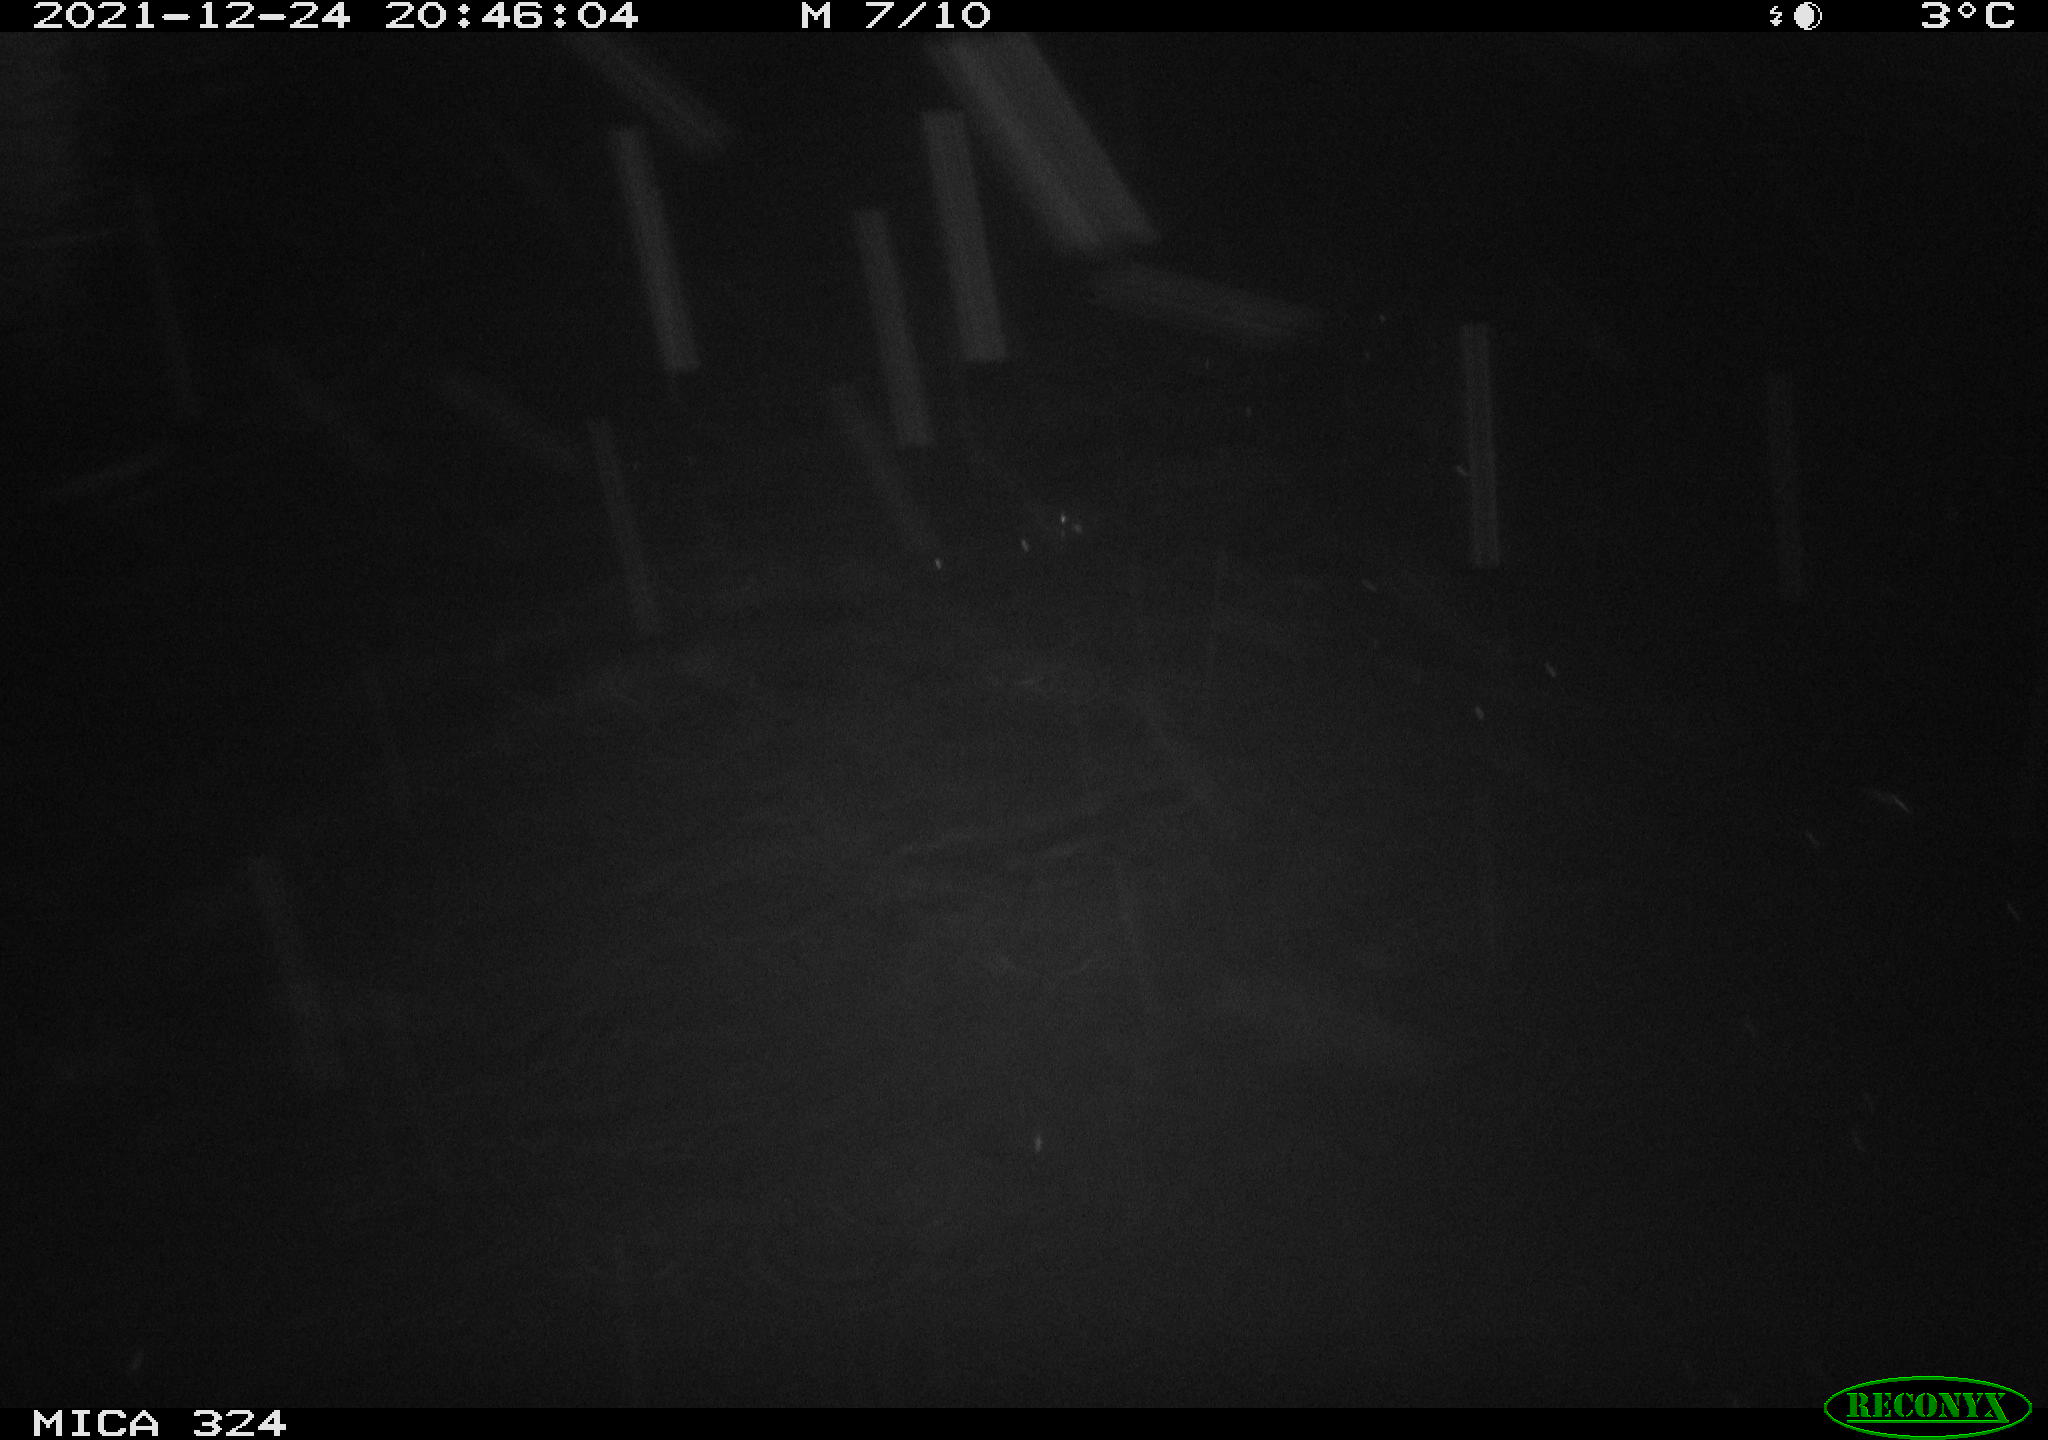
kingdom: Animalia
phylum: Chordata
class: Mammalia
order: Rodentia
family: Cricetidae
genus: Ondatra
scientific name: Ondatra zibethicus
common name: Muskrat
